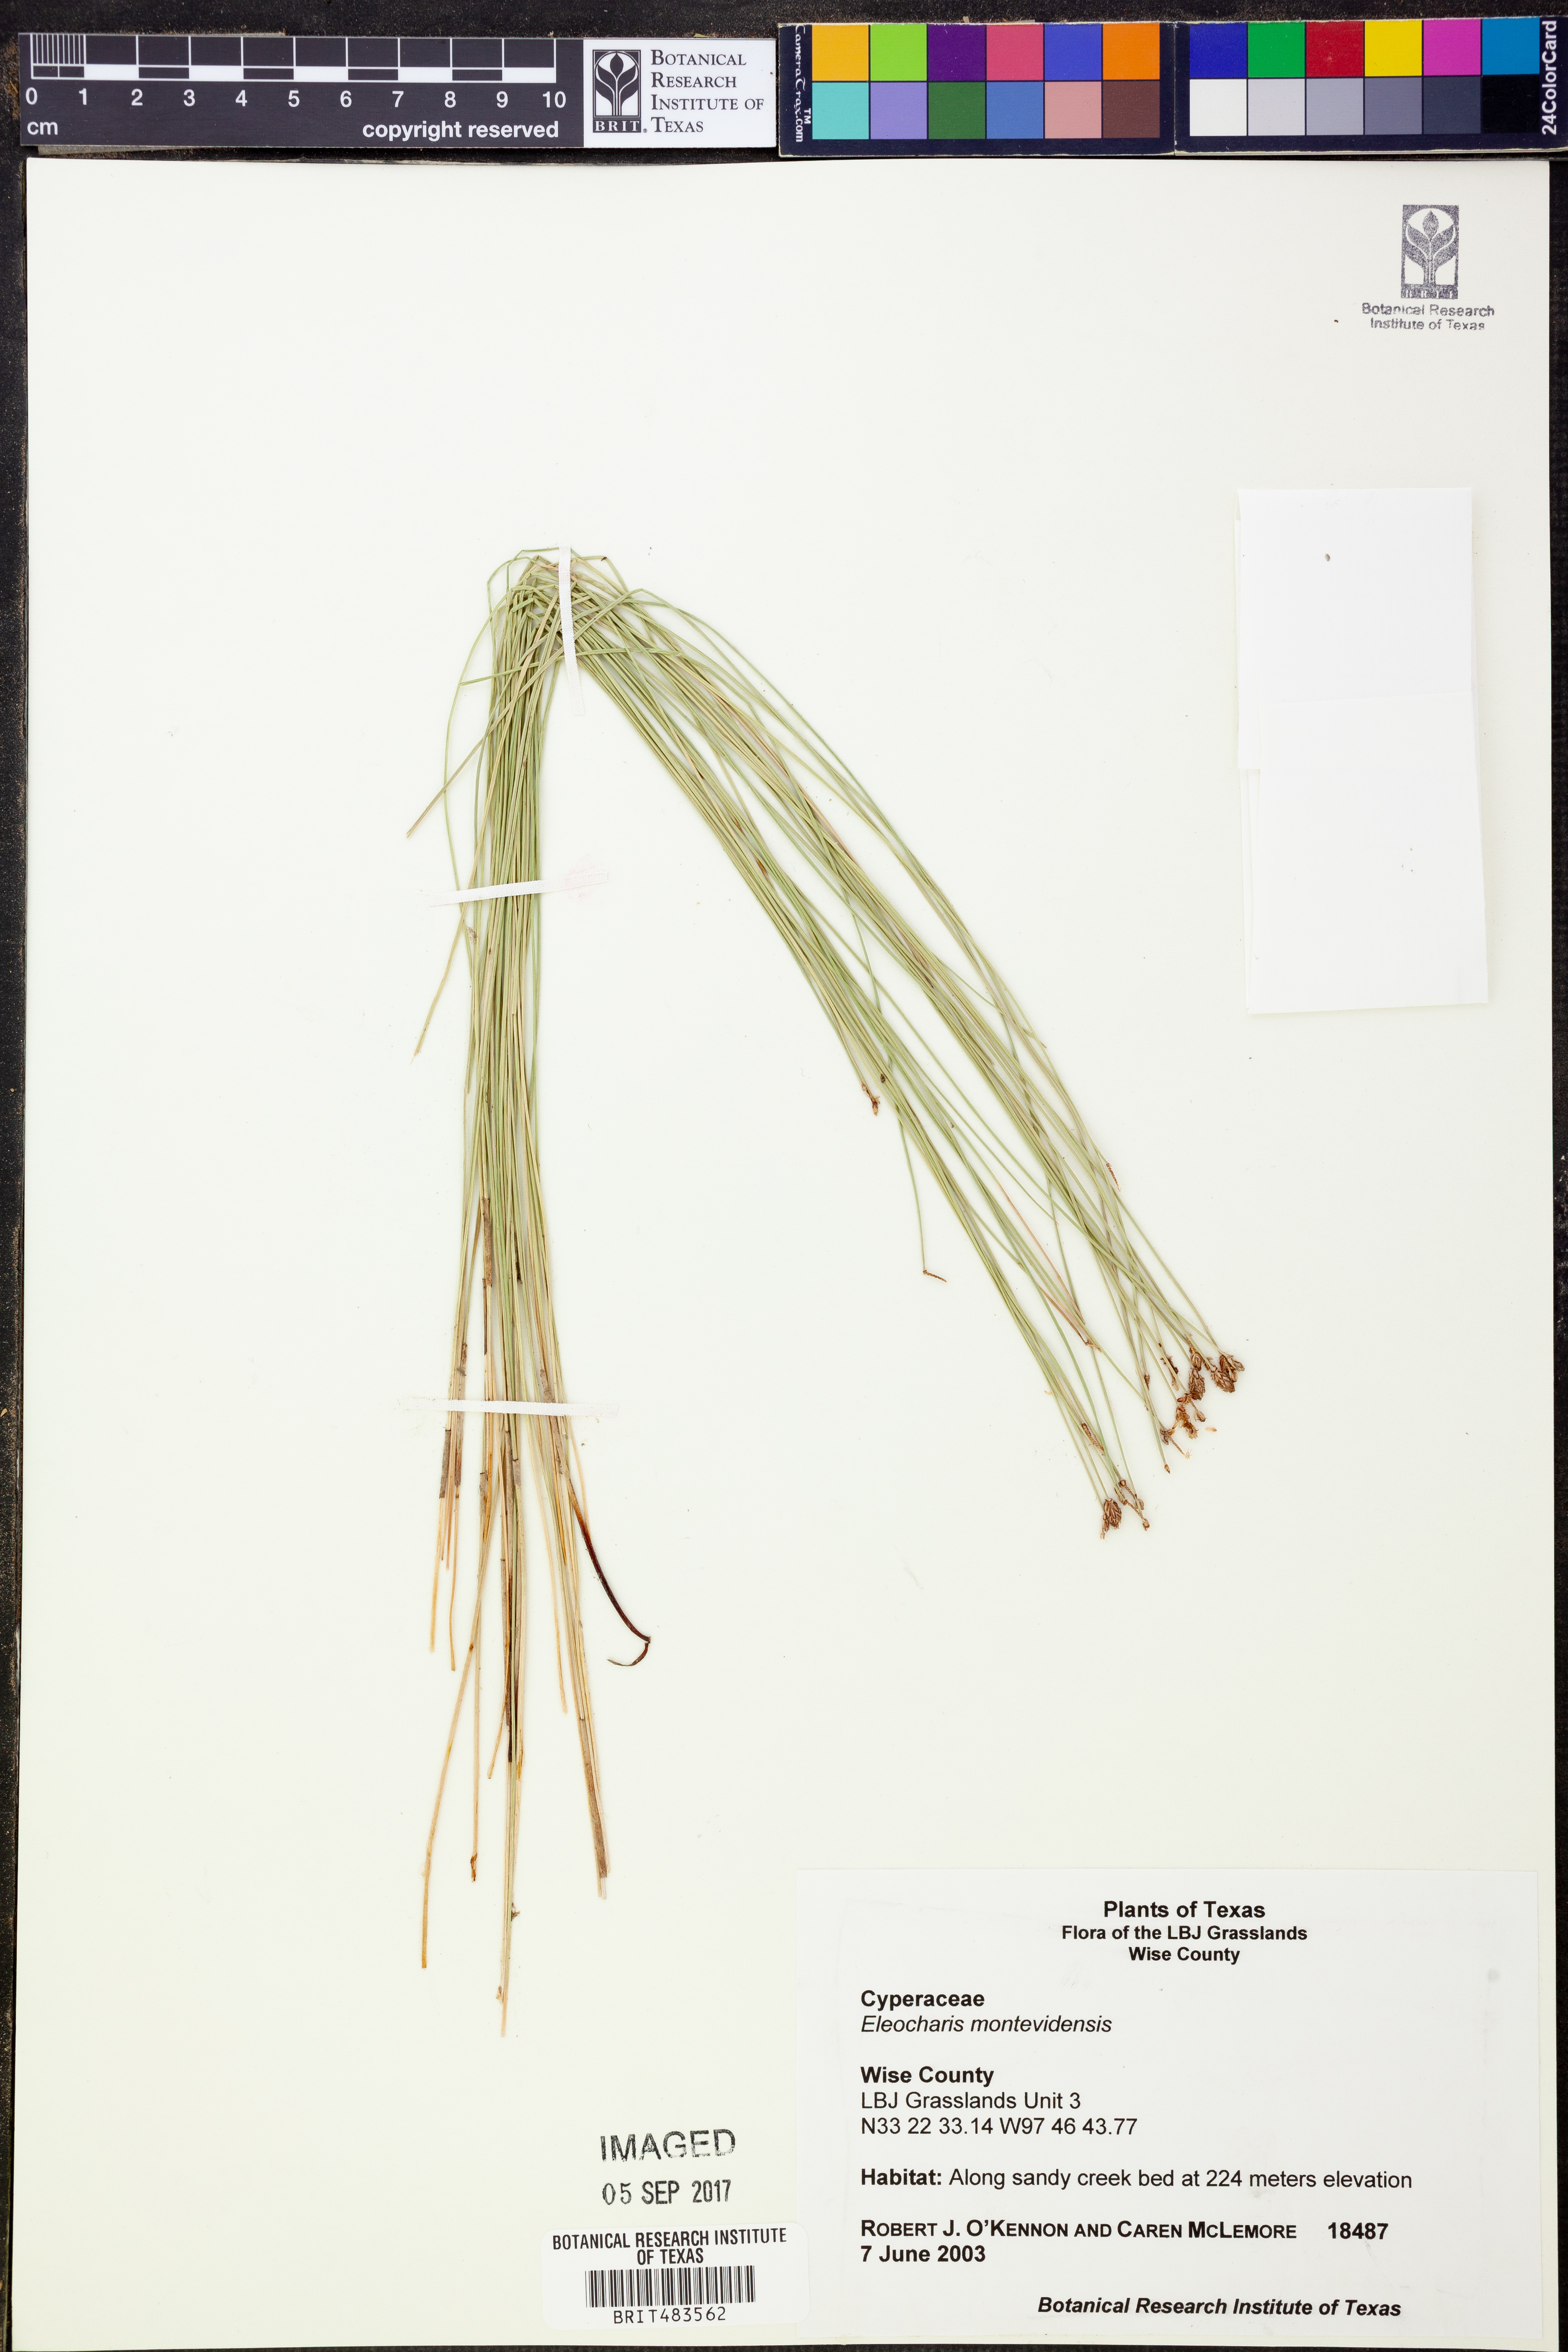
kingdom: Plantae
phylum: Tracheophyta
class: Liliopsida
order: Poales
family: Cyperaceae
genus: Eleocharis
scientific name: Eleocharis montevidensis
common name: Sand spike-rush
